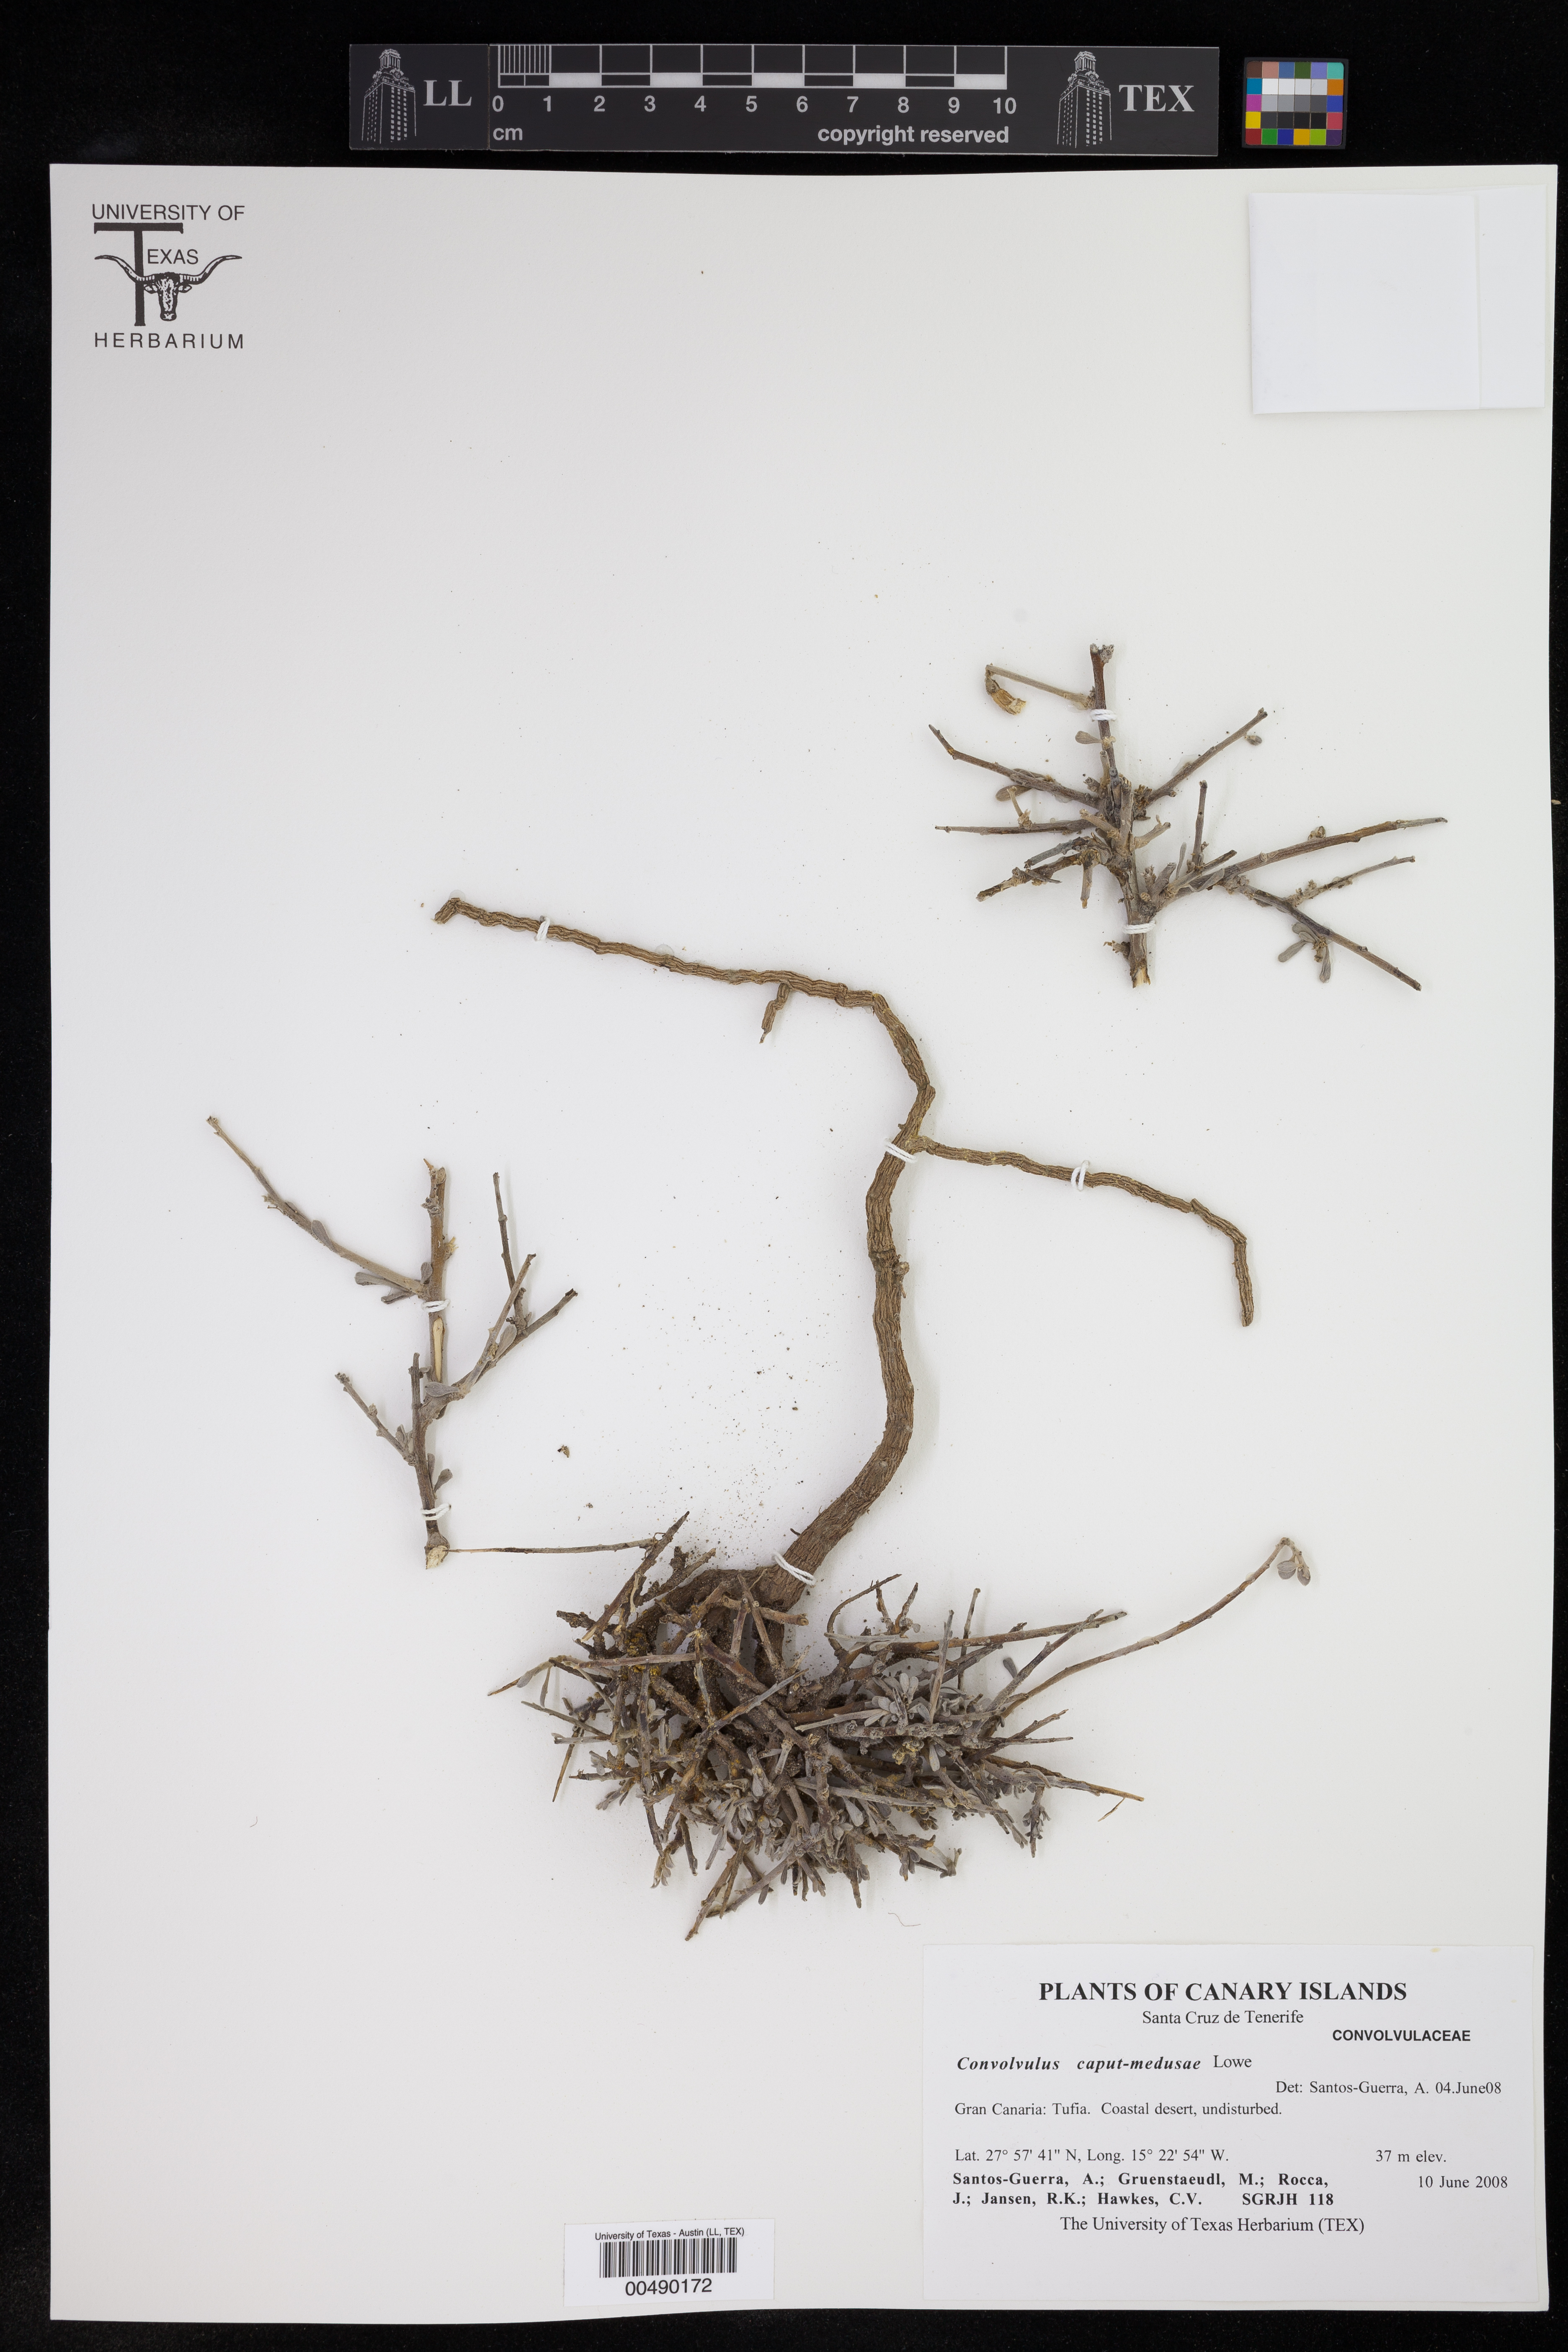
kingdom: Plantae
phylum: Tracheophyta
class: Magnoliopsida
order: Solanales
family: Convolvulaceae
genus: Convolvulus
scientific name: Convolvulus caput-medusae
